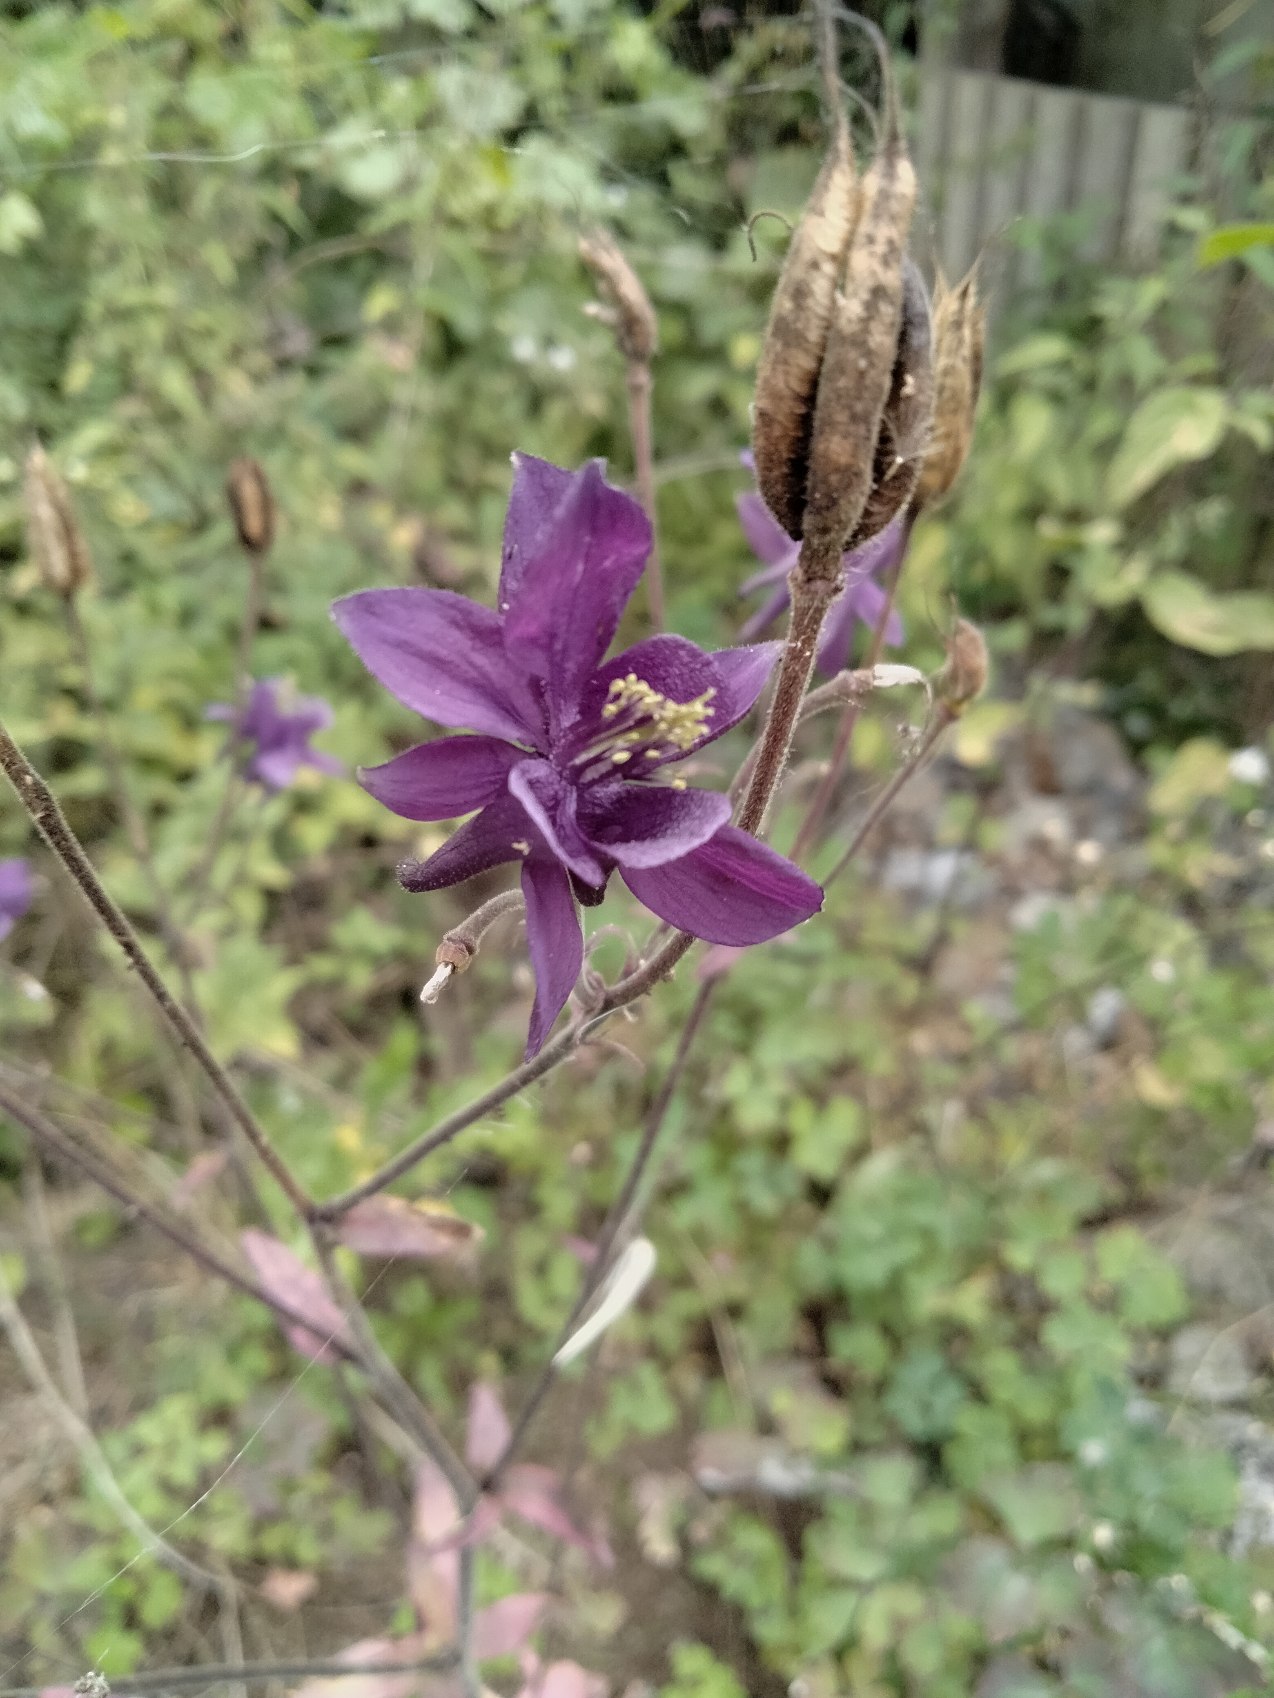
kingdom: Plantae
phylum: Tracheophyta
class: Magnoliopsida
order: Ranunculales
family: Ranunculaceae
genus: Aquilegia
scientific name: Aquilegia vulgaris
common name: Akeleje
